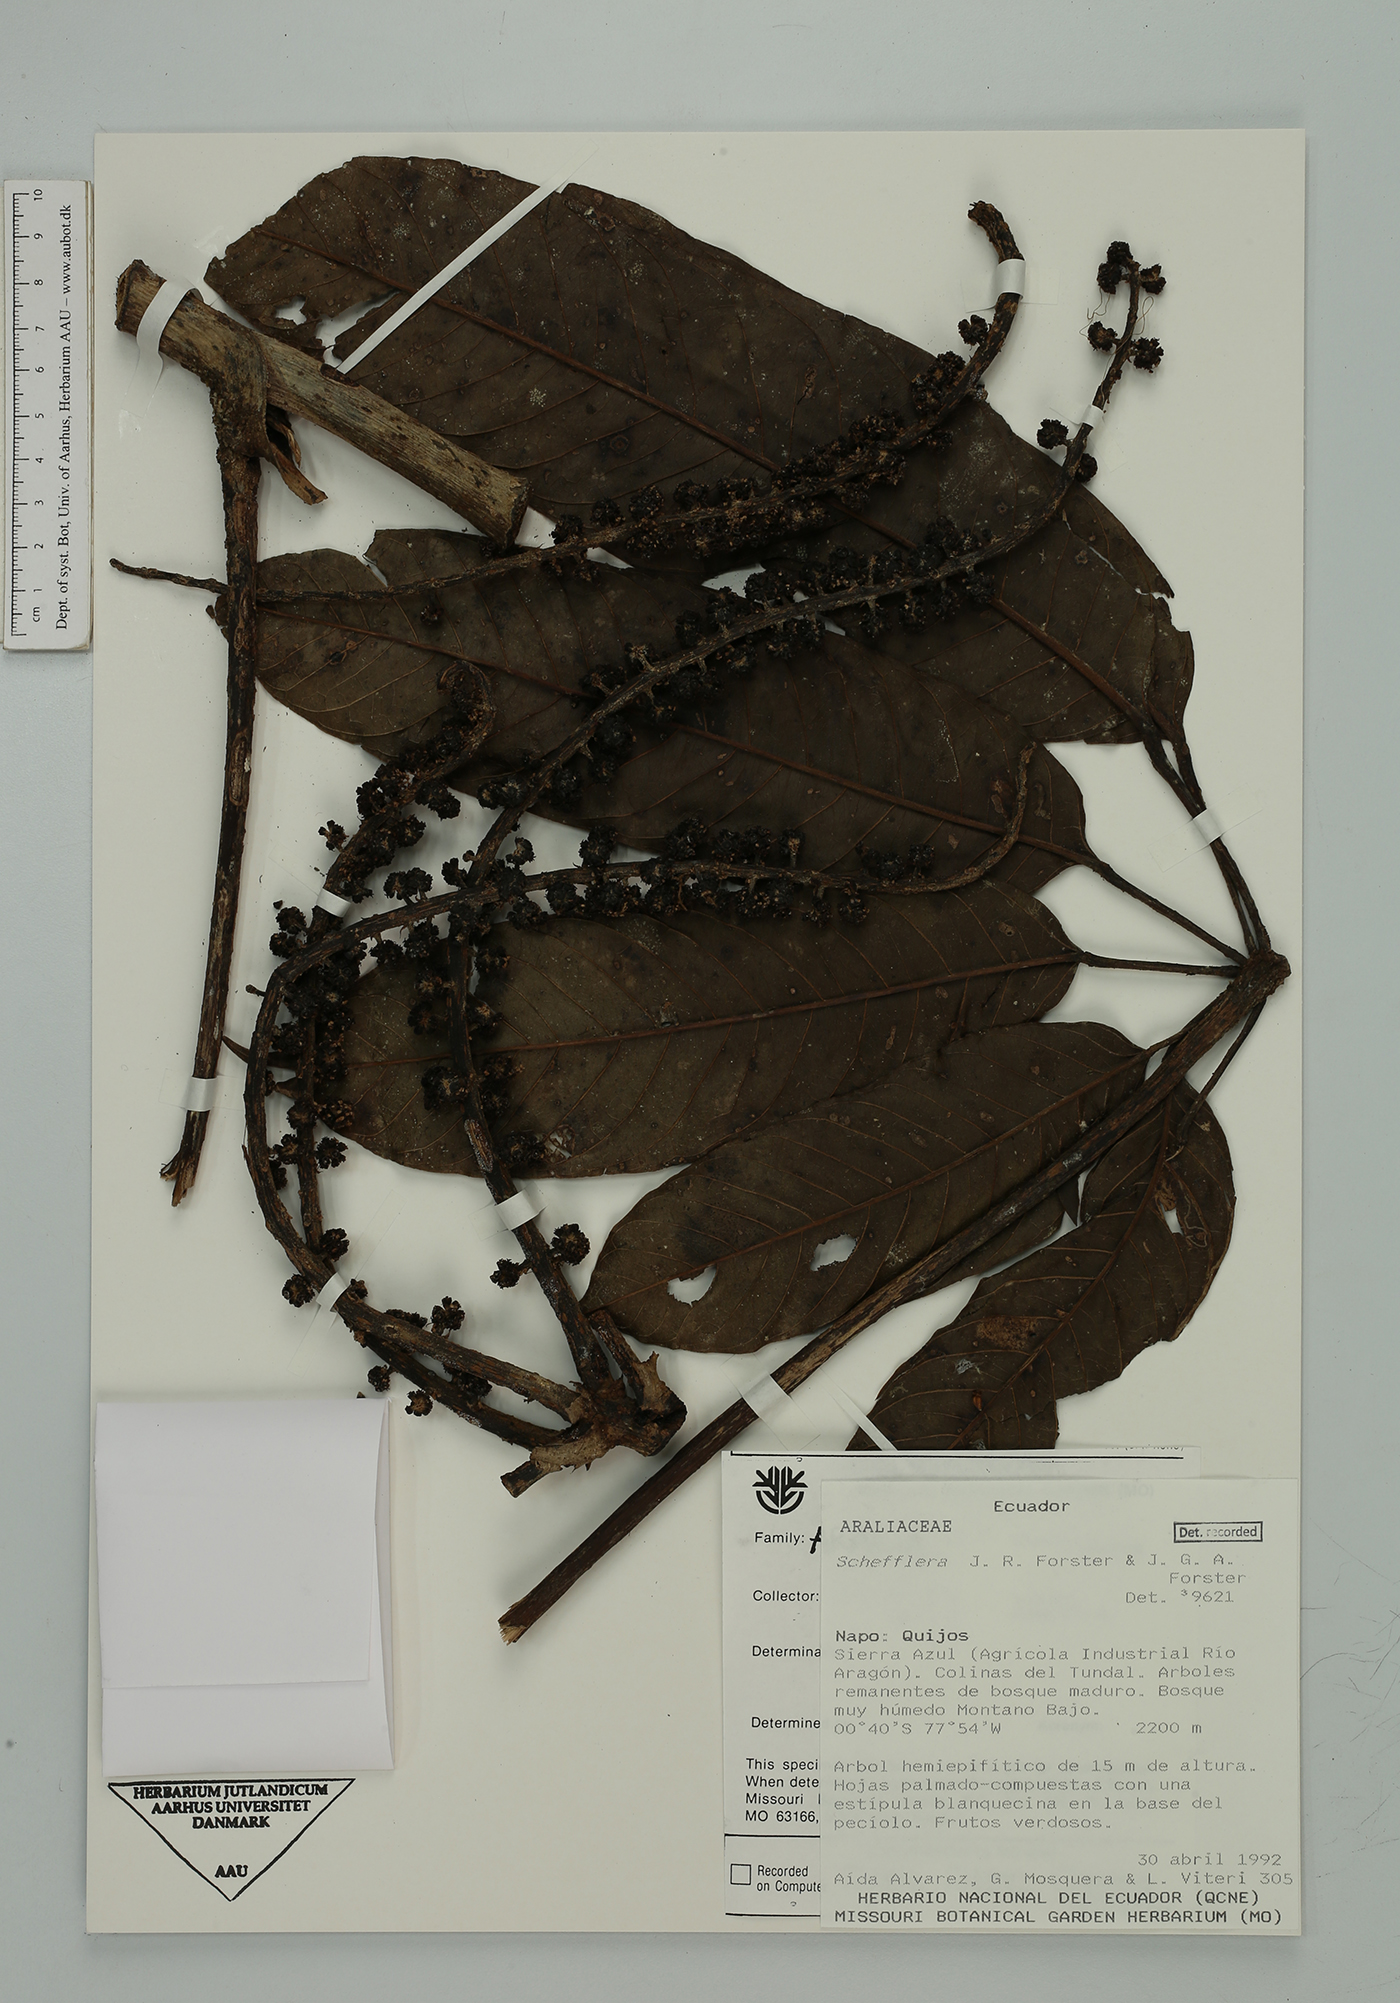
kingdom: Plantae
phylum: Tracheophyta
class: Magnoliopsida
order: Apiales
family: Araliaceae
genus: Sciodaphyllum
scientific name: Sciodaphyllum
